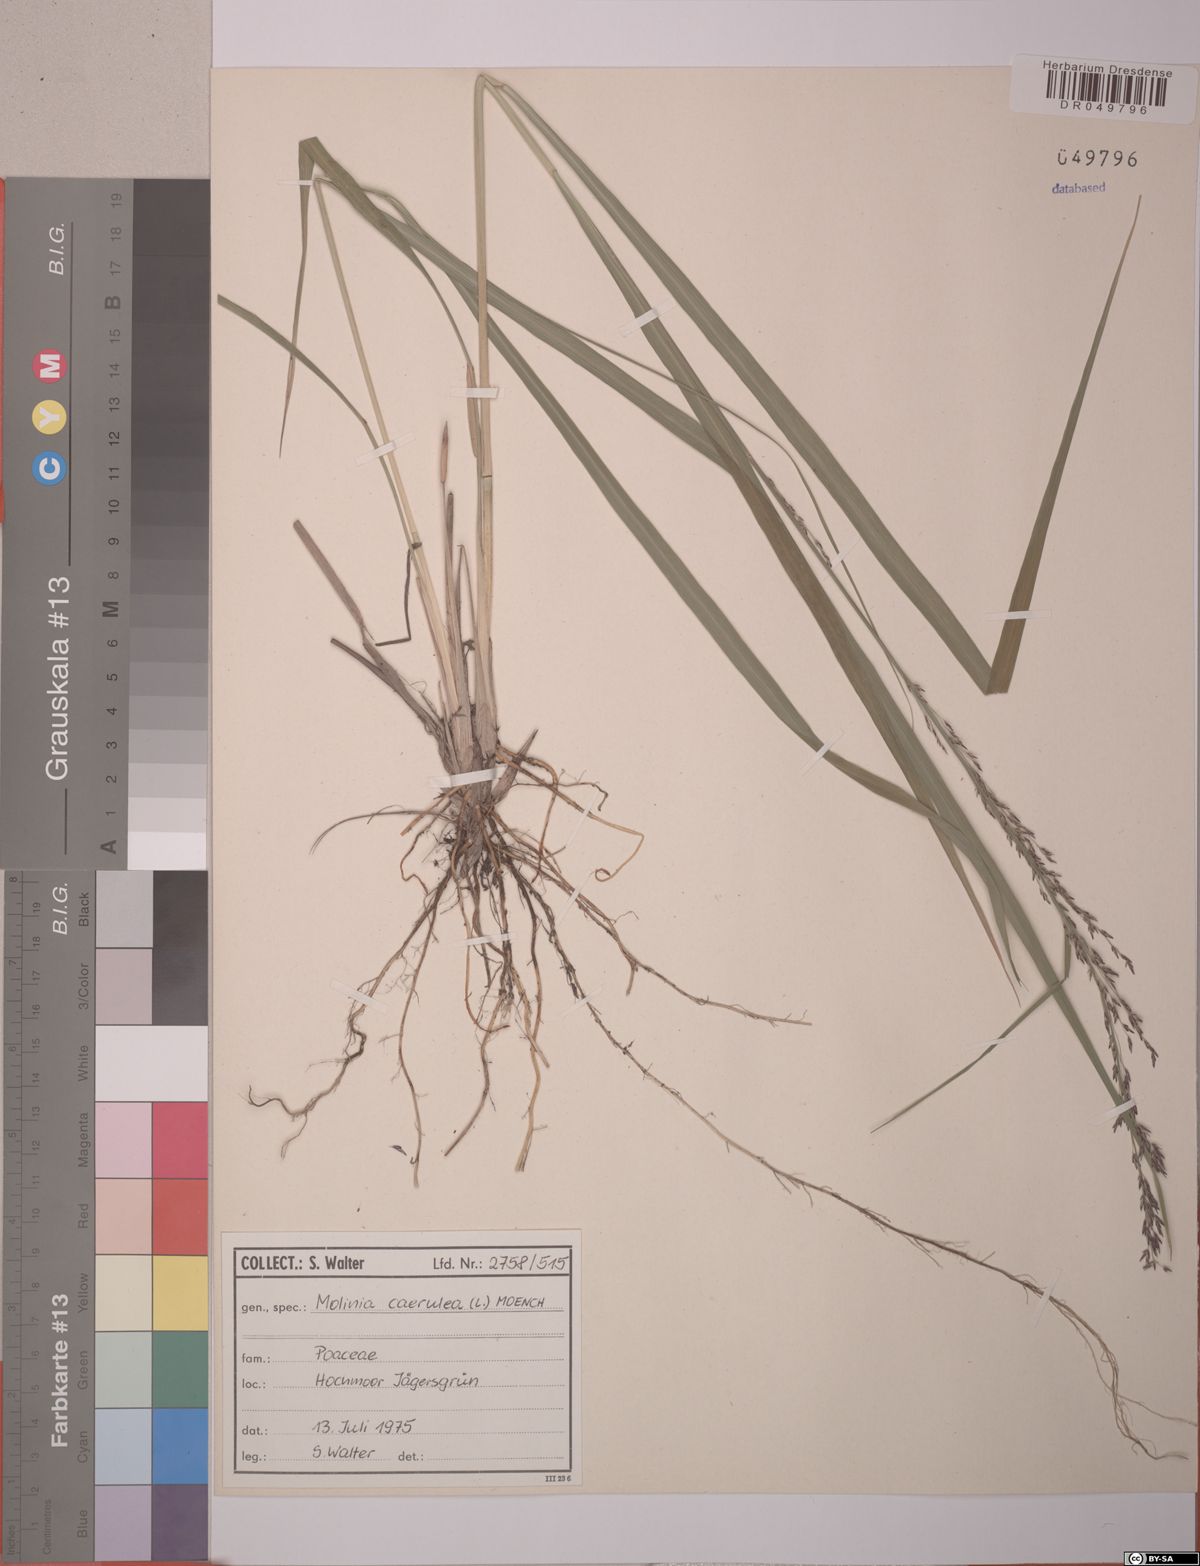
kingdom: Plantae
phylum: Tracheophyta
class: Liliopsida
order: Poales
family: Poaceae
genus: Molinia
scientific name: Molinia caerulea
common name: Purple moor-grass
